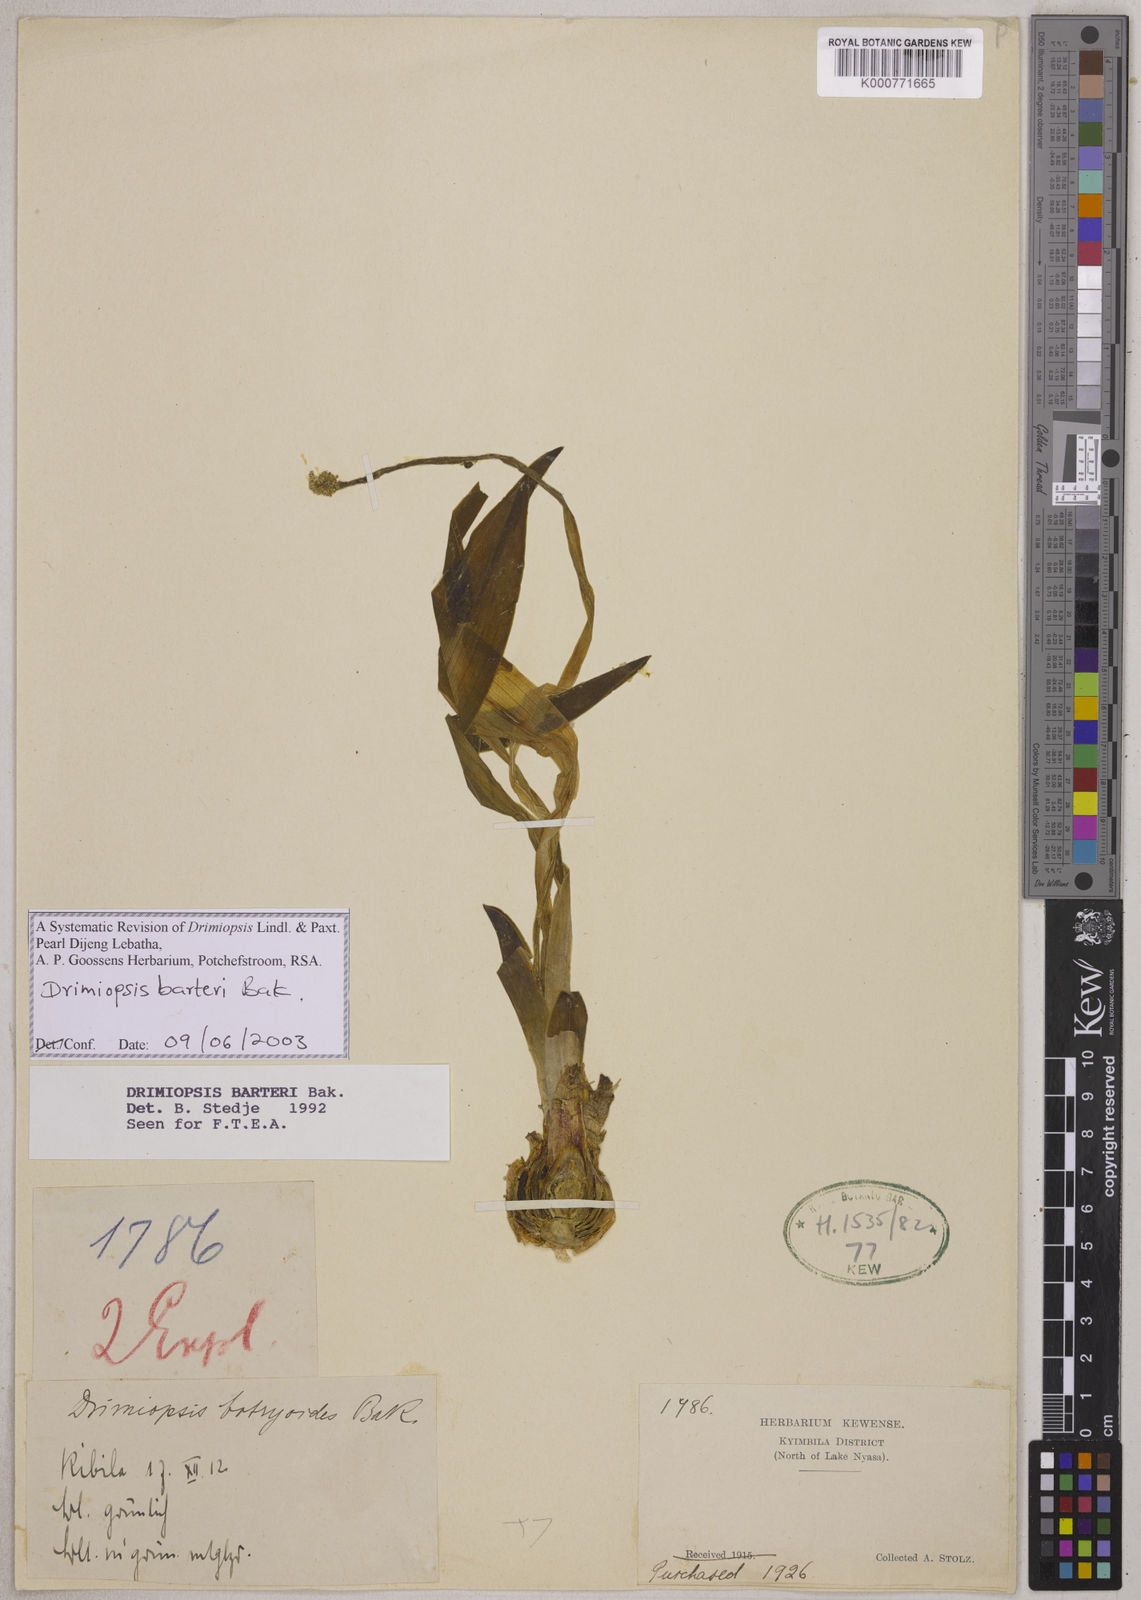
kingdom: Plantae
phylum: Tracheophyta
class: Liliopsida
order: Asparagales
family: Asparagaceae
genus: Drimiopsis
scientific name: Drimiopsis barteri
